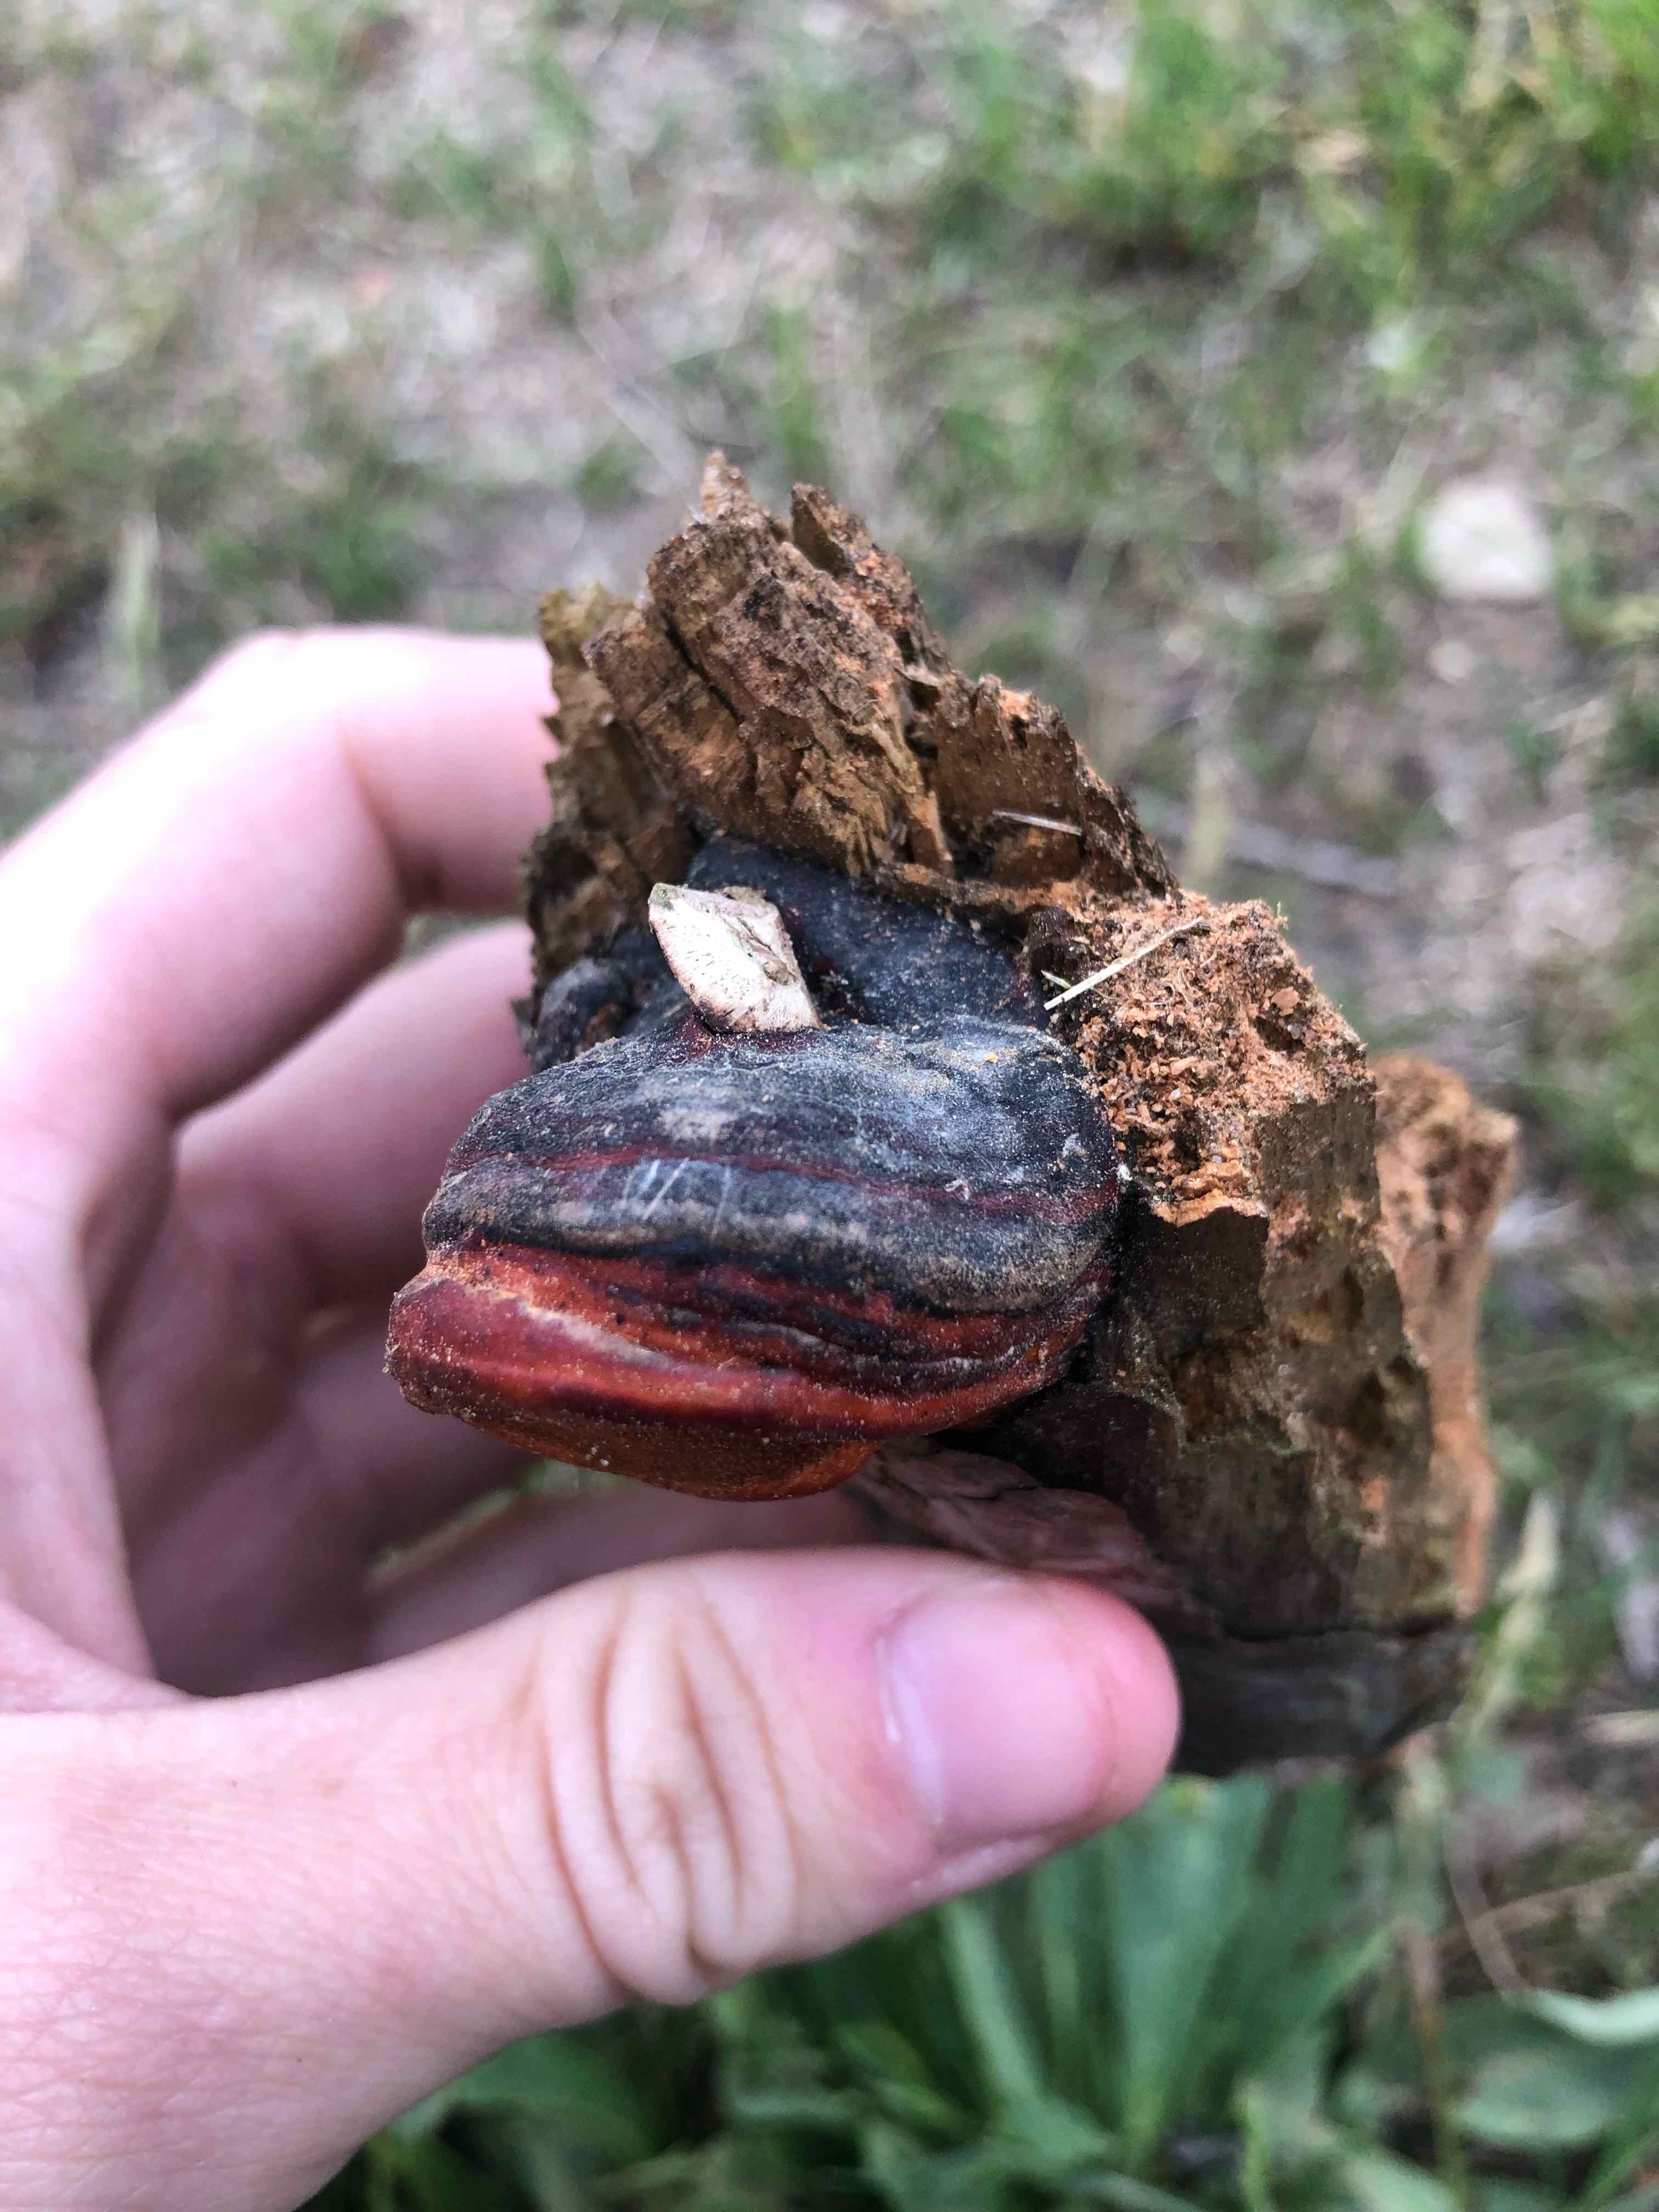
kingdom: Fungi
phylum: Basidiomycota
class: Agaricomycetes
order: Polyporales
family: Fomitopsidaceae
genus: Fomitopsis
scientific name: Fomitopsis pinicola
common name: randbæltet hovporesvamp
